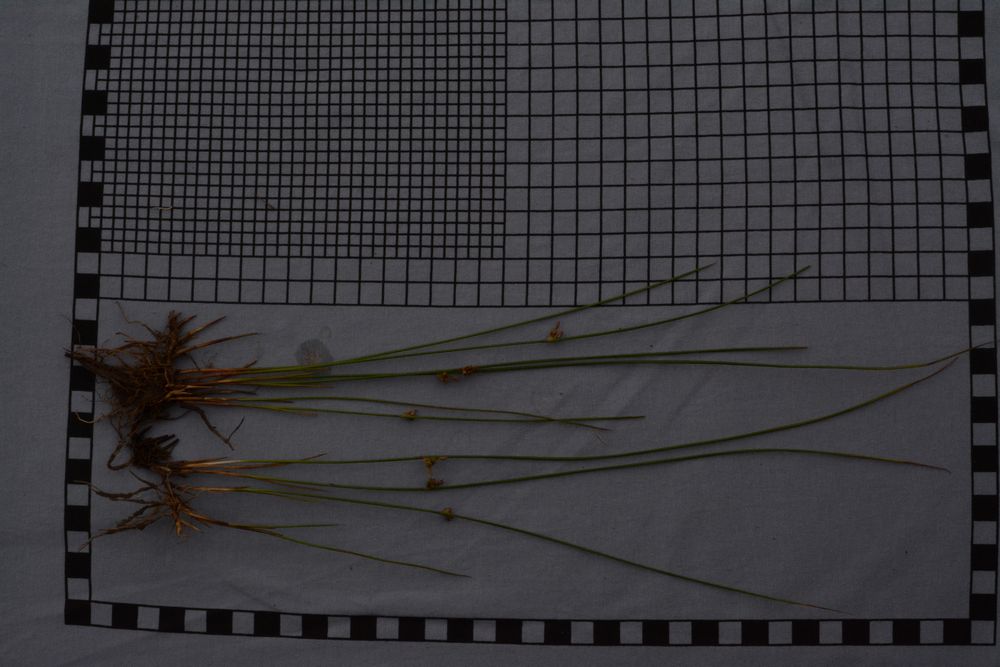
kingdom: Plantae
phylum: Tracheophyta
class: Liliopsida
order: Poales
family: Juncaceae
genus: Juncus
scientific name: Juncus filiformis
